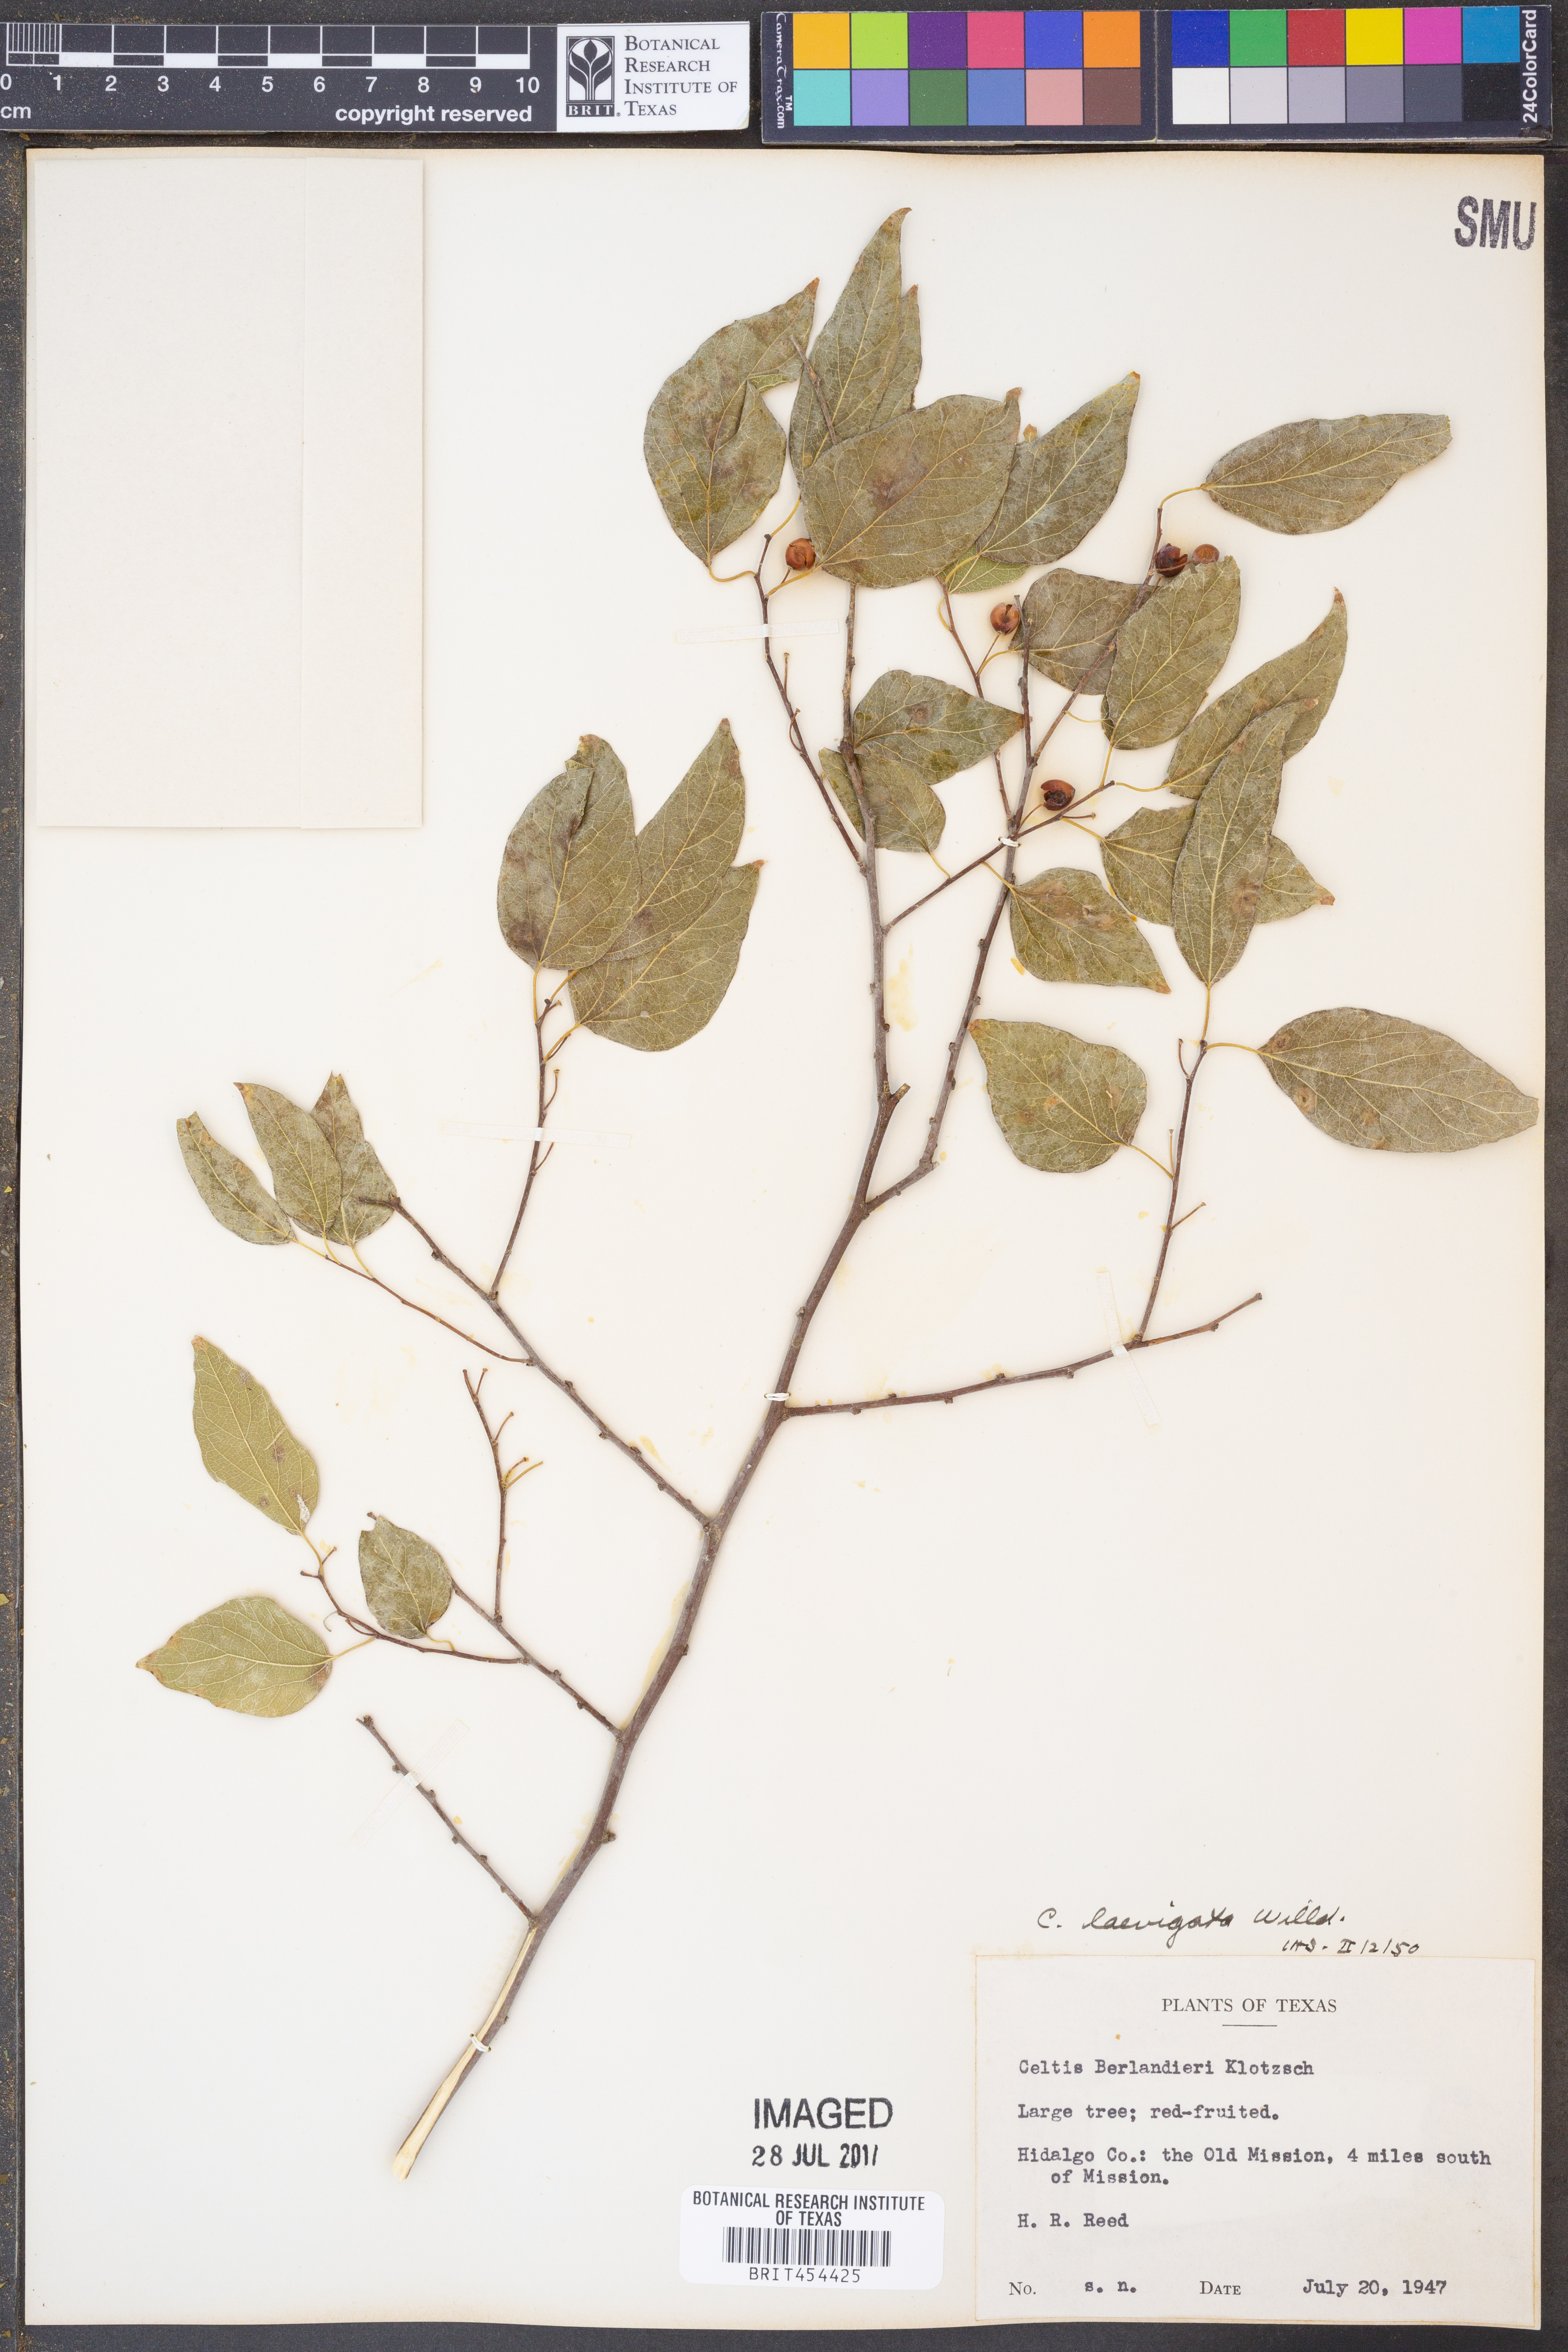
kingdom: Plantae
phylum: Tracheophyta
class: Magnoliopsida
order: Rosales
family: Cannabaceae
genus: Celtis
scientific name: Celtis laevigata
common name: Sugarberry
